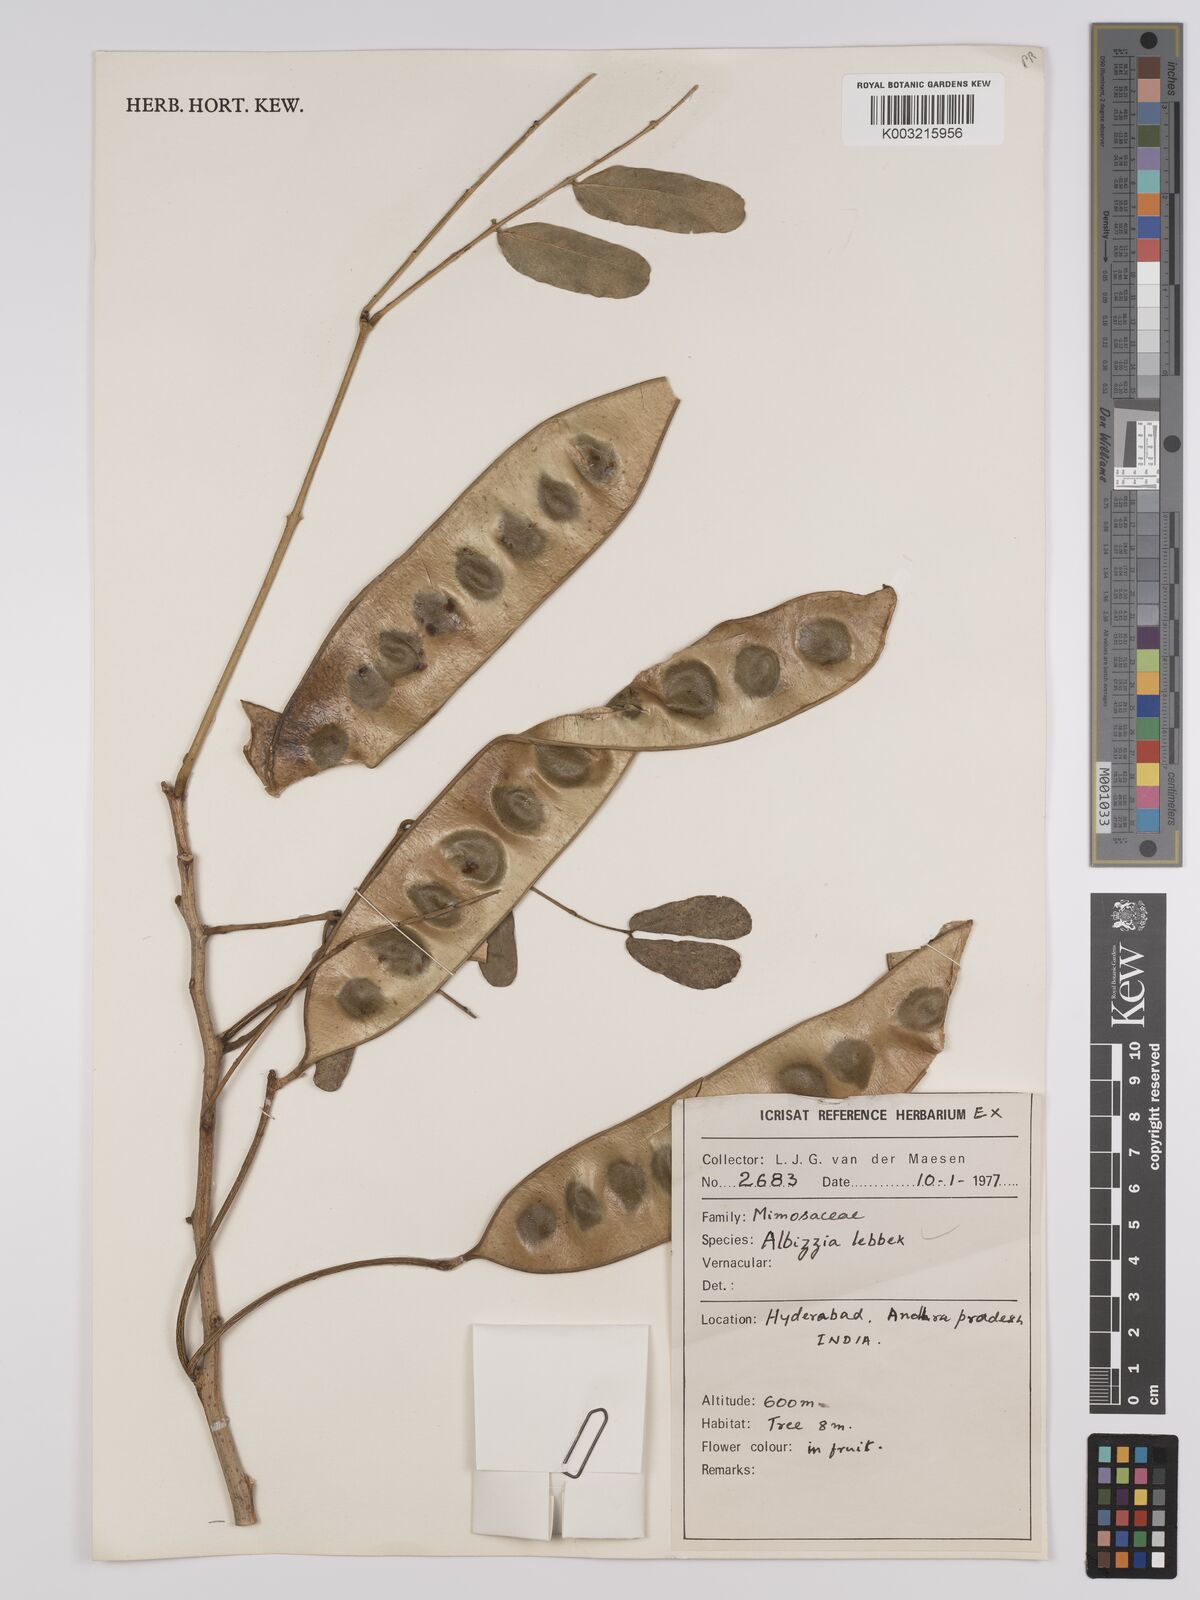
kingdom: Plantae
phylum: Tracheophyta
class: Magnoliopsida
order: Fabales
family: Fabaceae
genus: Albizia
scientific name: Albizia lebbeck
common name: Woman's tongue
